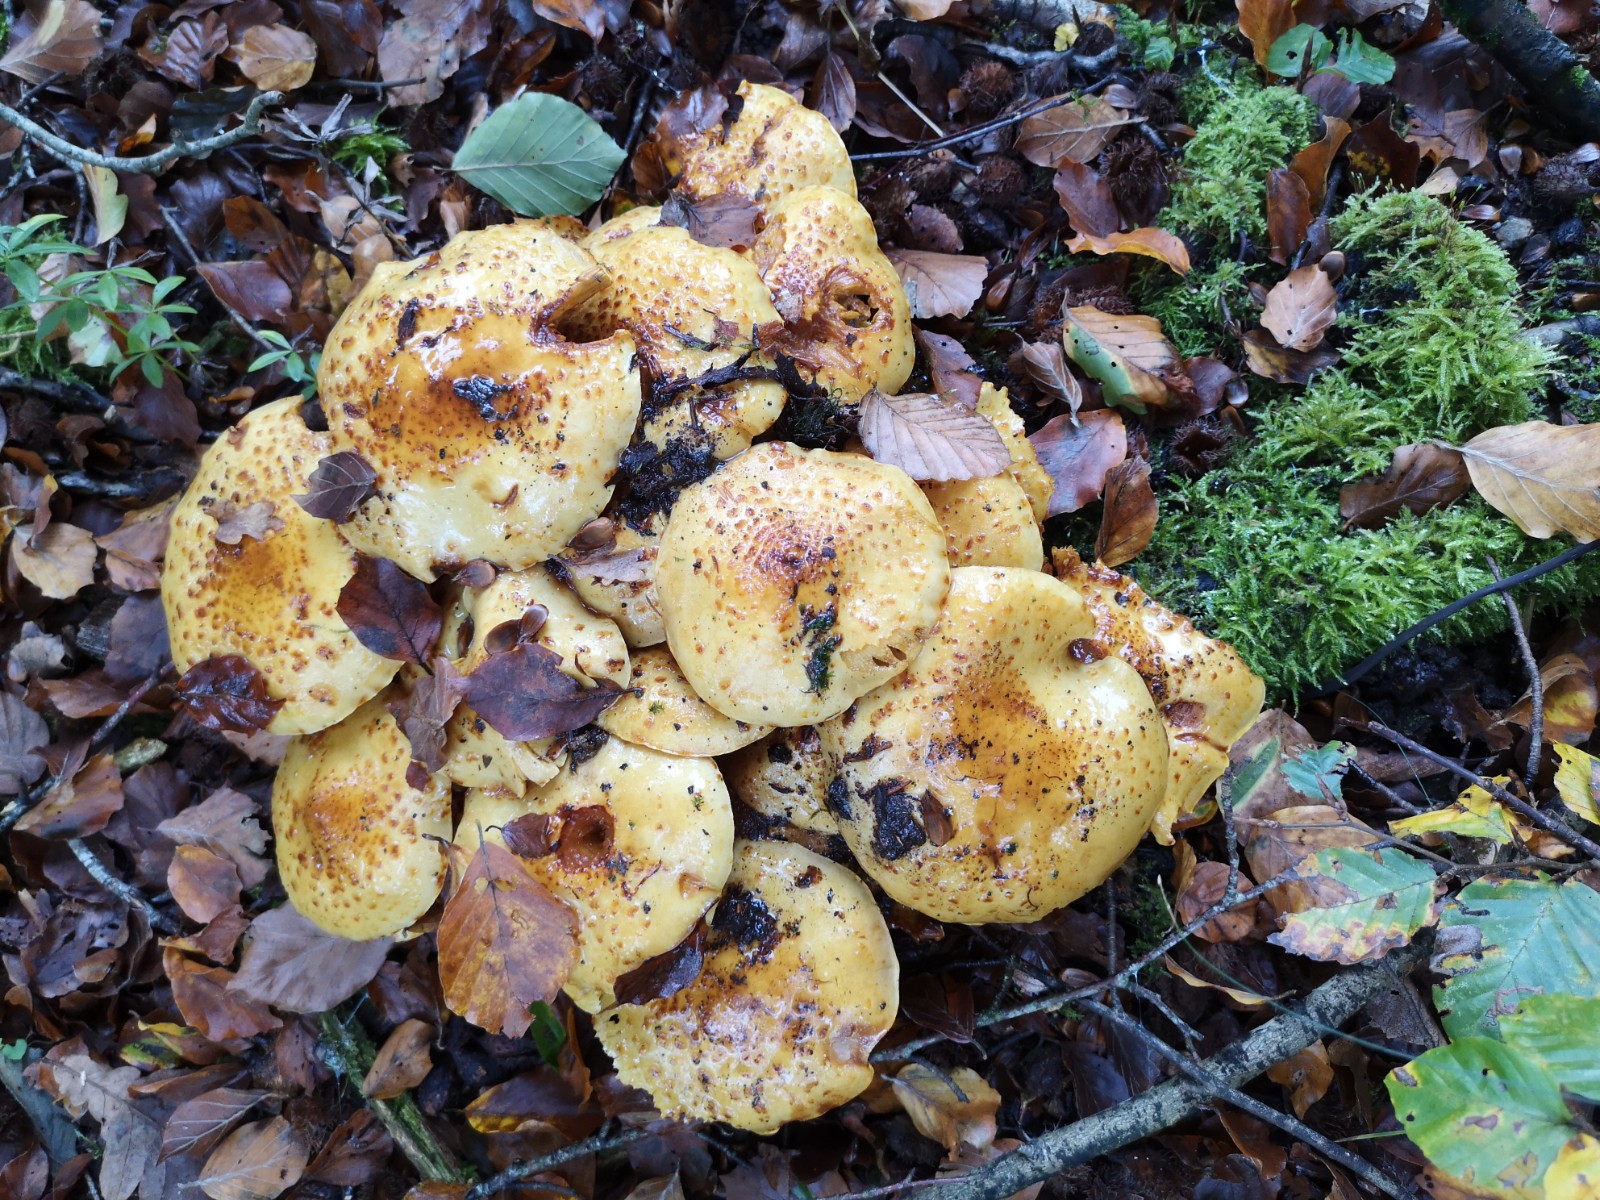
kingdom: Fungi
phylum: Basidiomycota
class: Agaricomycetes
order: Agaricales
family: Strophariaceae
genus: Pholiota
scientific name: Pholiota jahnii
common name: slimet skælhat
